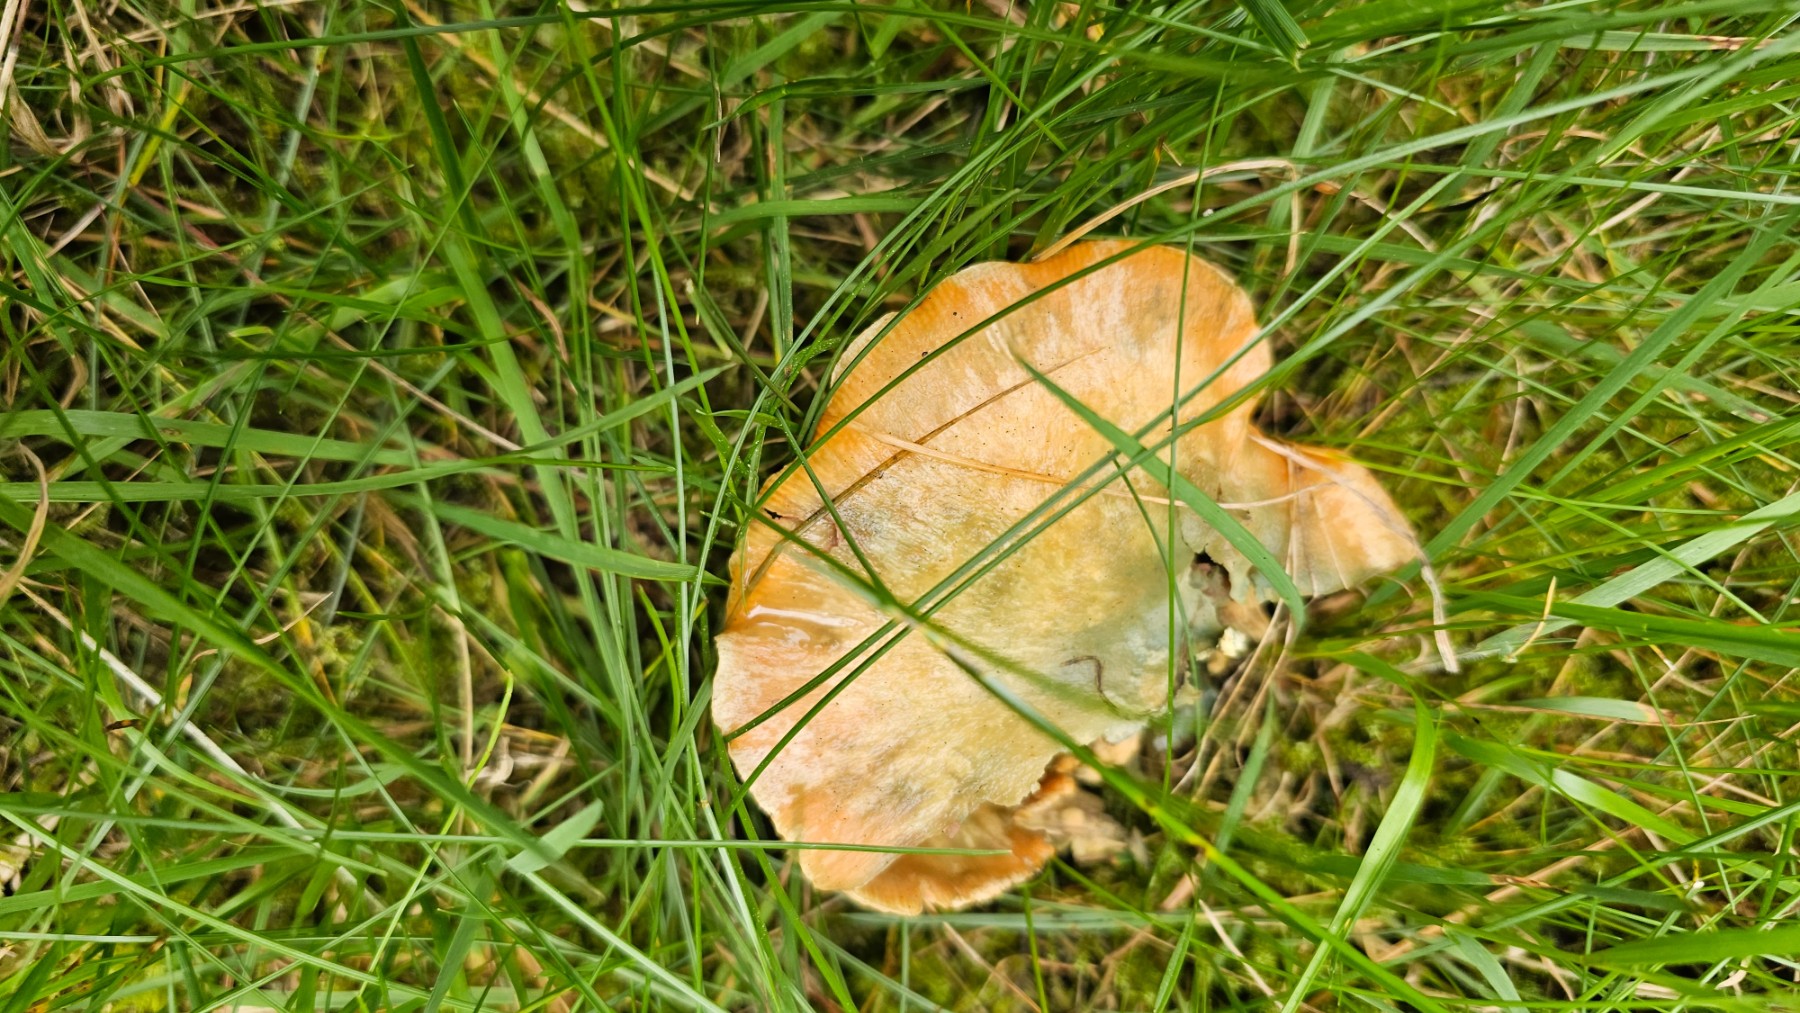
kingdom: Fungi
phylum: Basidiomycota
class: Agaricomycetes
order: Russulales
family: Russulaceae
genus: Lactarius
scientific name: Lactarius deterrimus
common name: gran-mælkehat
